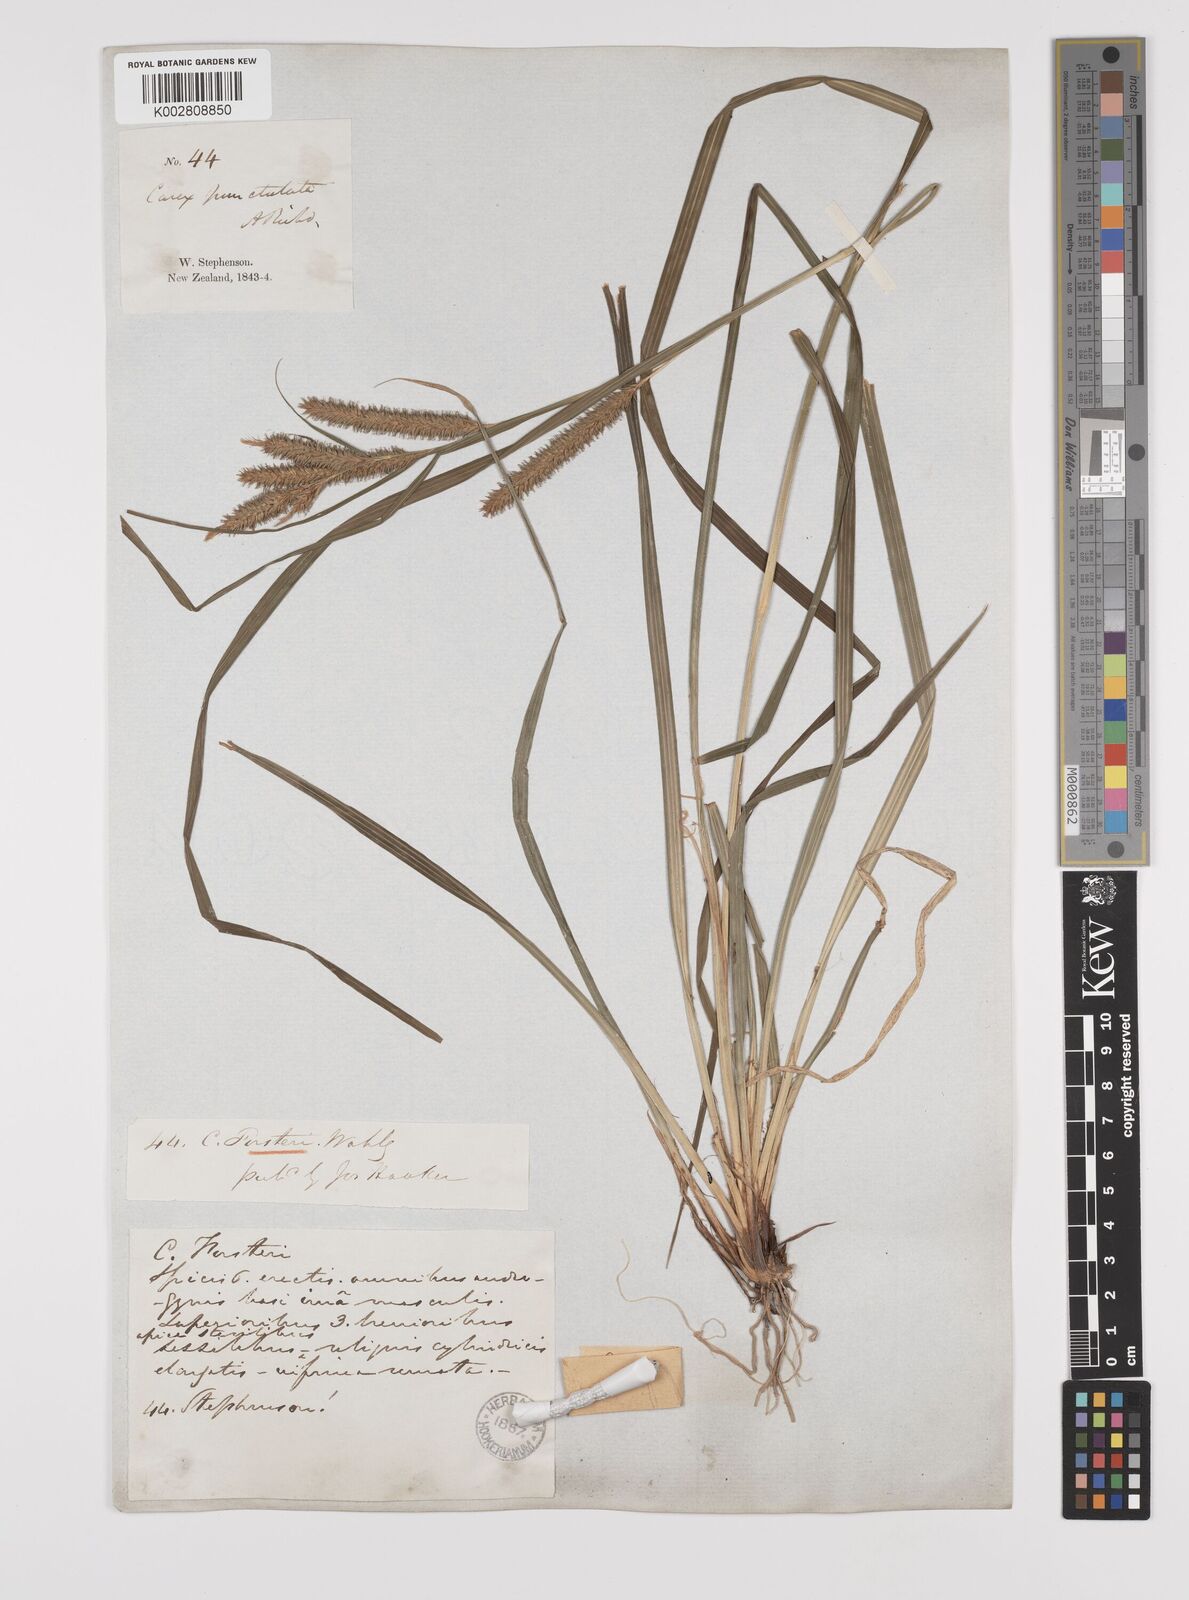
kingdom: Plantae
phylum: Tracheophyta
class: Liliopsida
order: Poales
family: Cyperaceae
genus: Carex
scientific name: Carex forsteri
